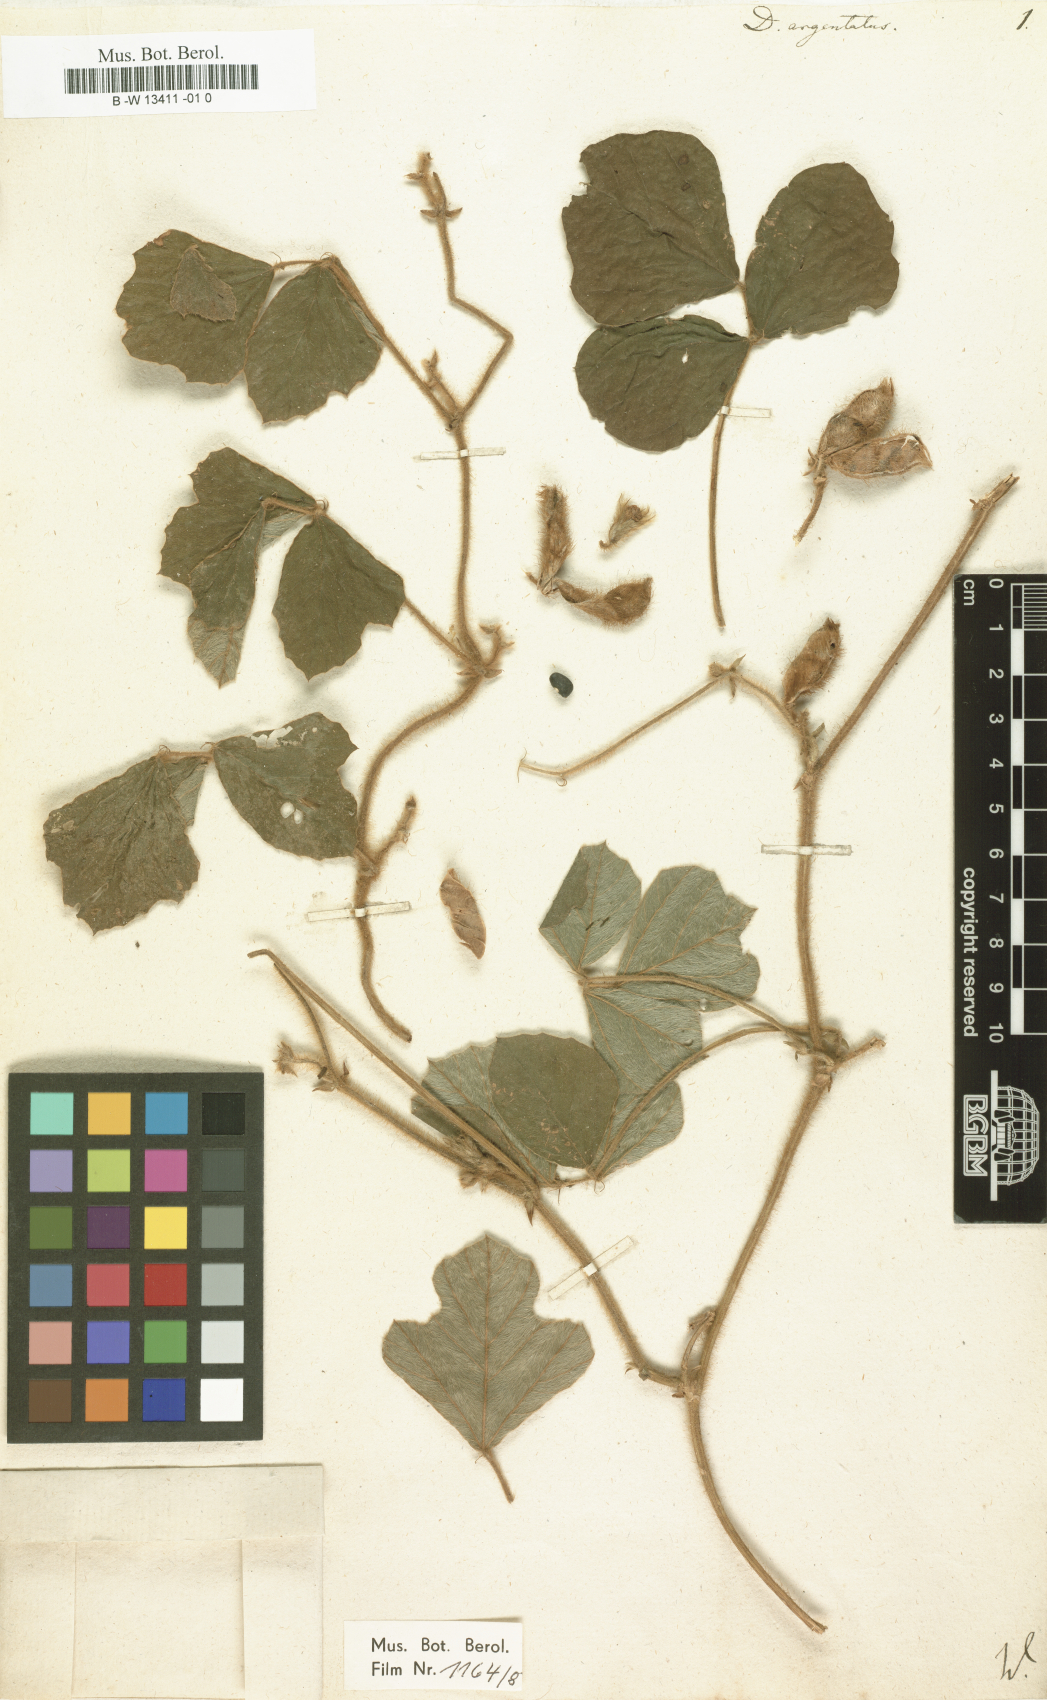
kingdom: Plantae
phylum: Tracheophyta
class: Magnoliopsida
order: Fabales
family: Fabaceae
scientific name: Fabaceae
